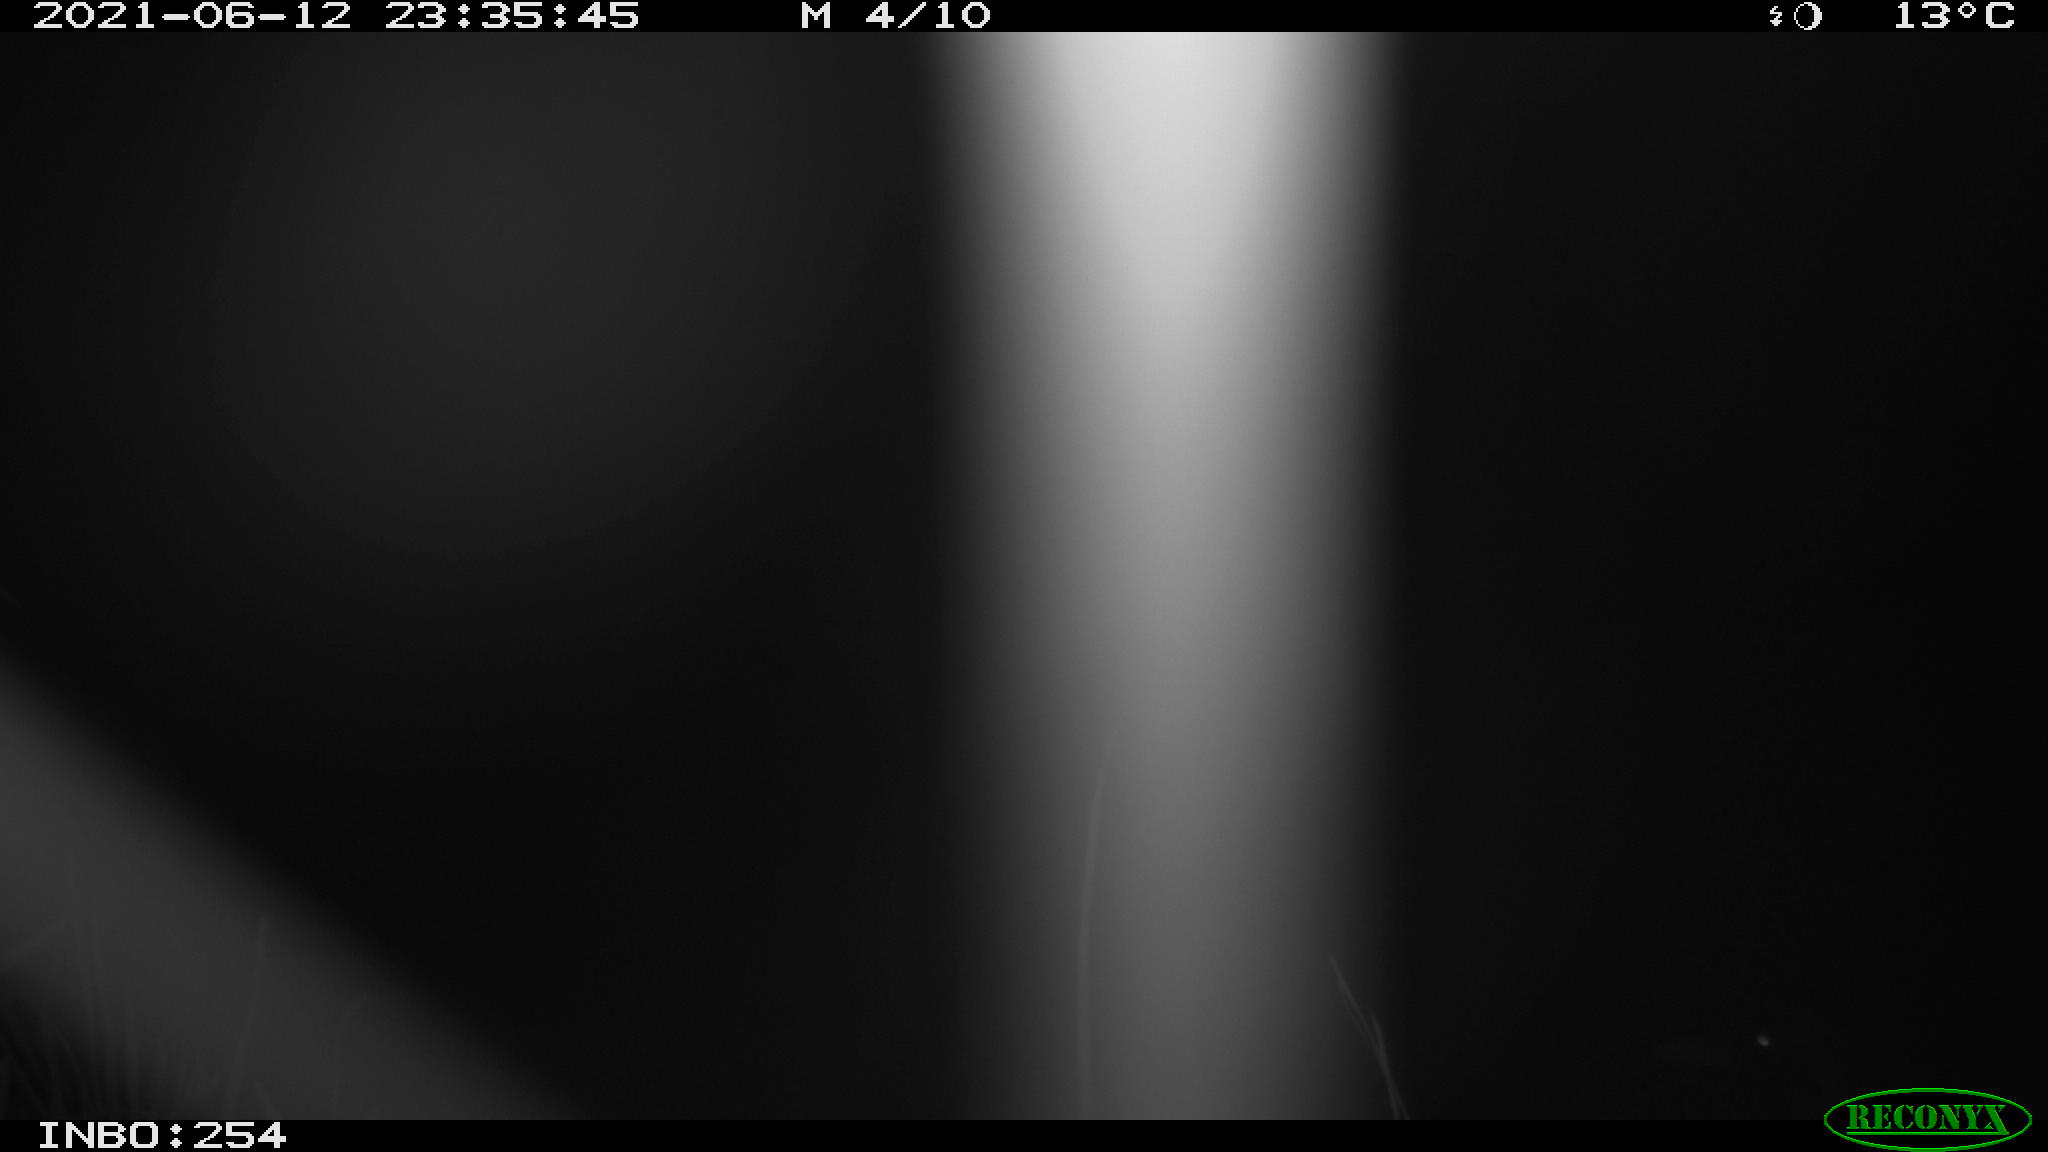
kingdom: Animalia
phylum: Chordata
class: Aves
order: Anseriformes
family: Anatidae
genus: Anas
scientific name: Anas platyrhynchos
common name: Mallard
